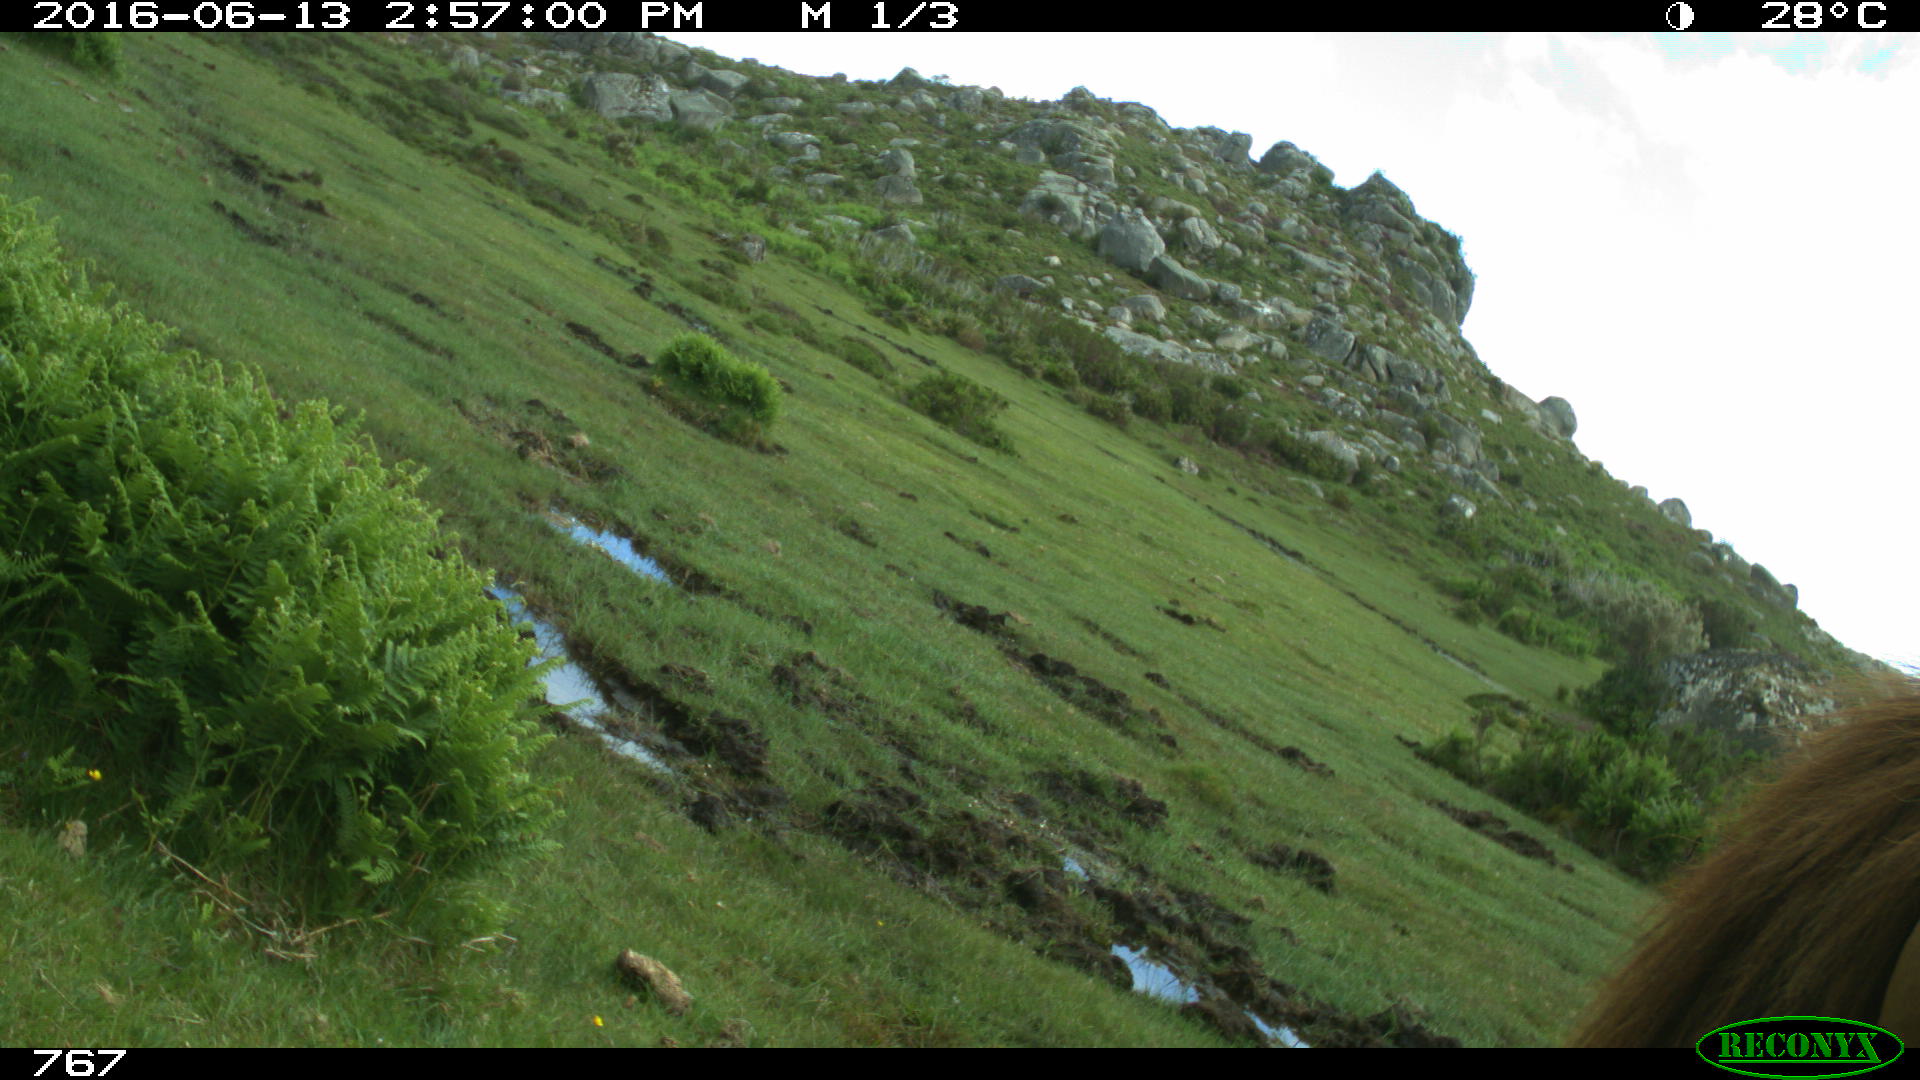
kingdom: Animalia
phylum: Chordata
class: Mammalia
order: Perissodactyla
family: Equidae
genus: Equus
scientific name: Equus caballus
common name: Horse
